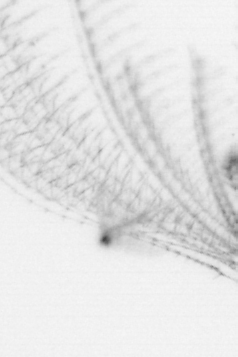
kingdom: Animalia
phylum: Chordata
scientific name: Chordata
